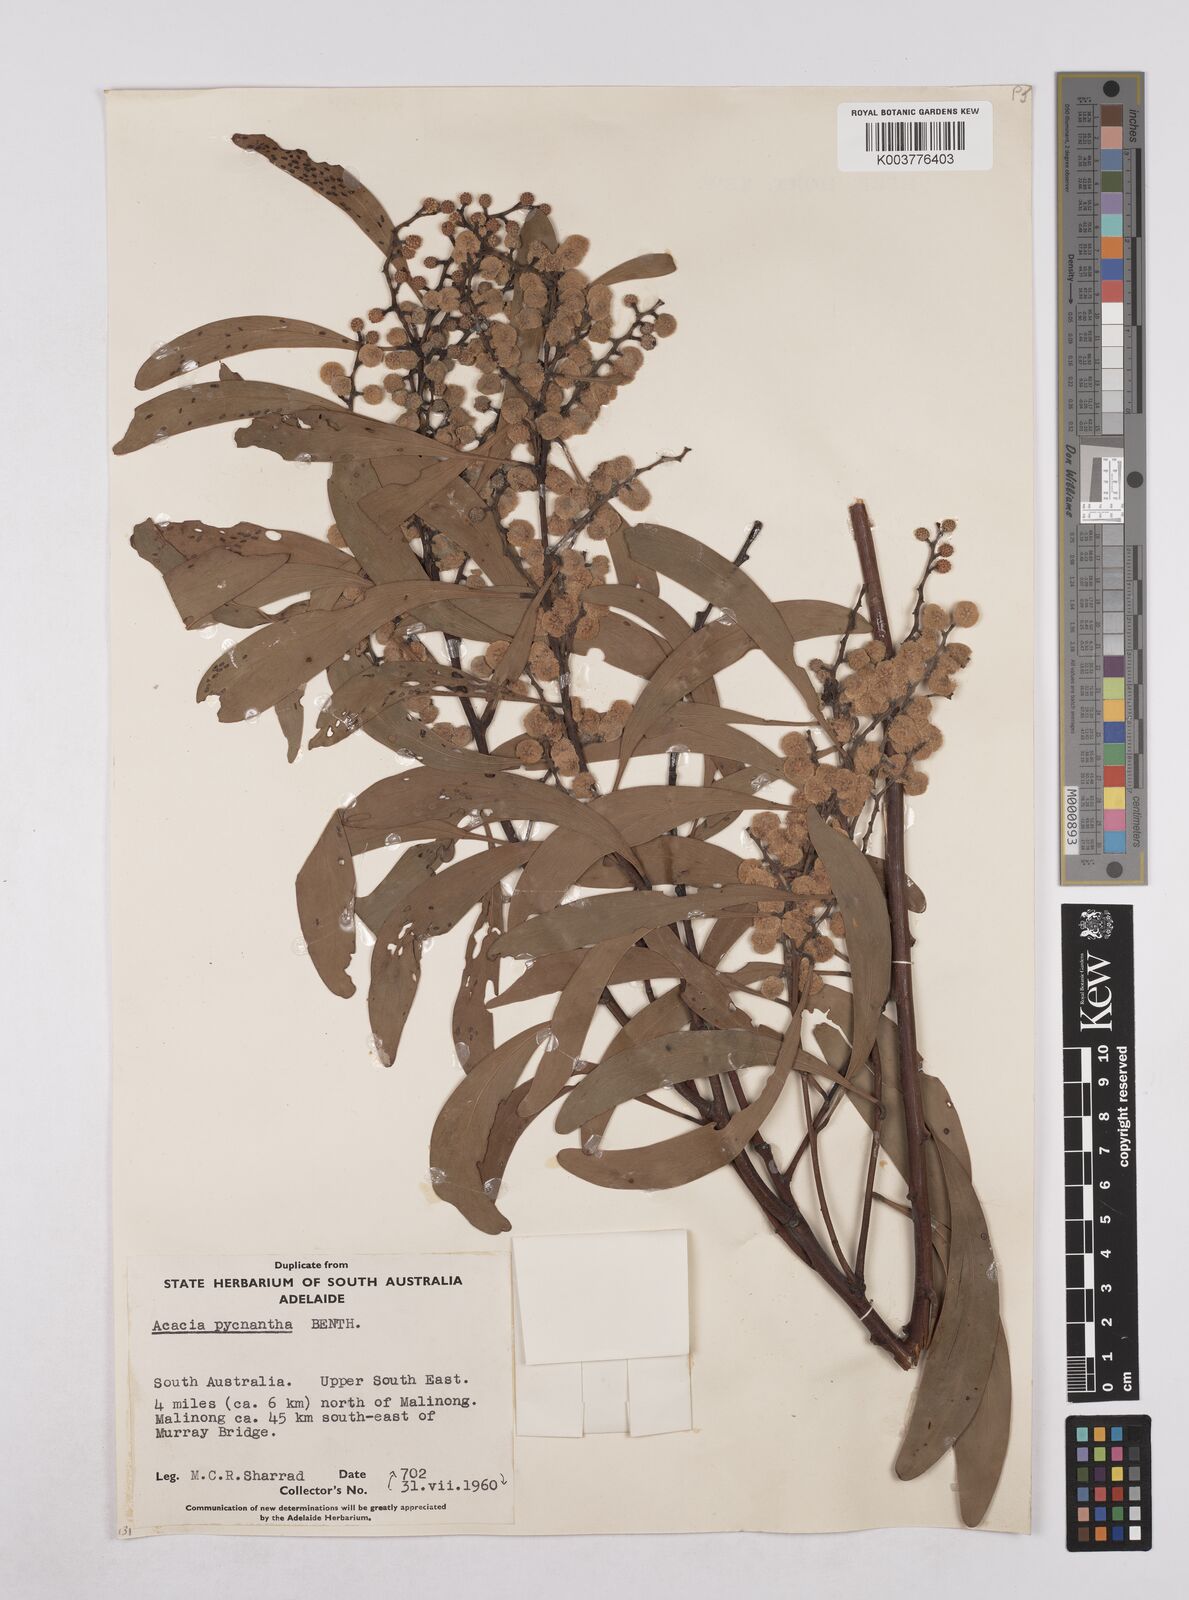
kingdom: Plantae
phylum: Tracheophyta
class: Magnoliopsida
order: Fabales
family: Fabaceae
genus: Acacia
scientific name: Acacia pycnantha
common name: Golden wattle
